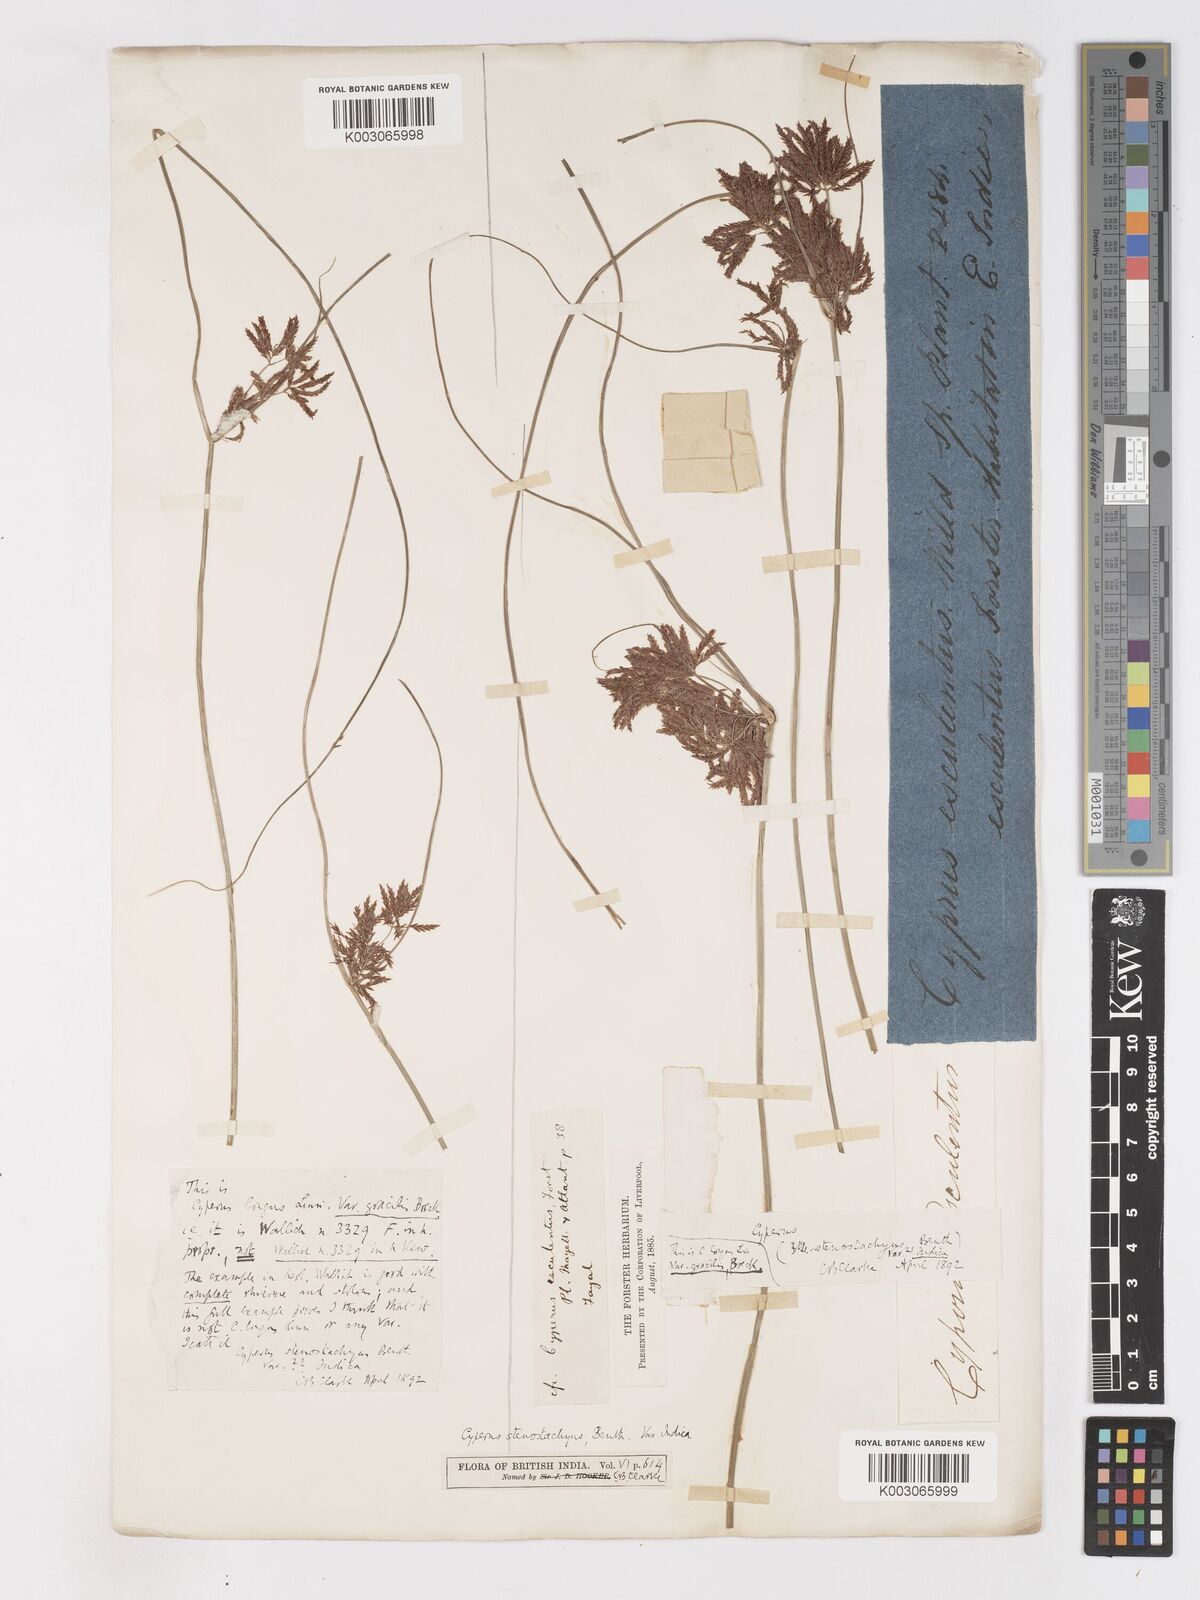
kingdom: Plantae
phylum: Tracheophyta
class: Liliopsida
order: Poales
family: Cyperaceae
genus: Cyperus
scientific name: Cyperus longus
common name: Galingale
